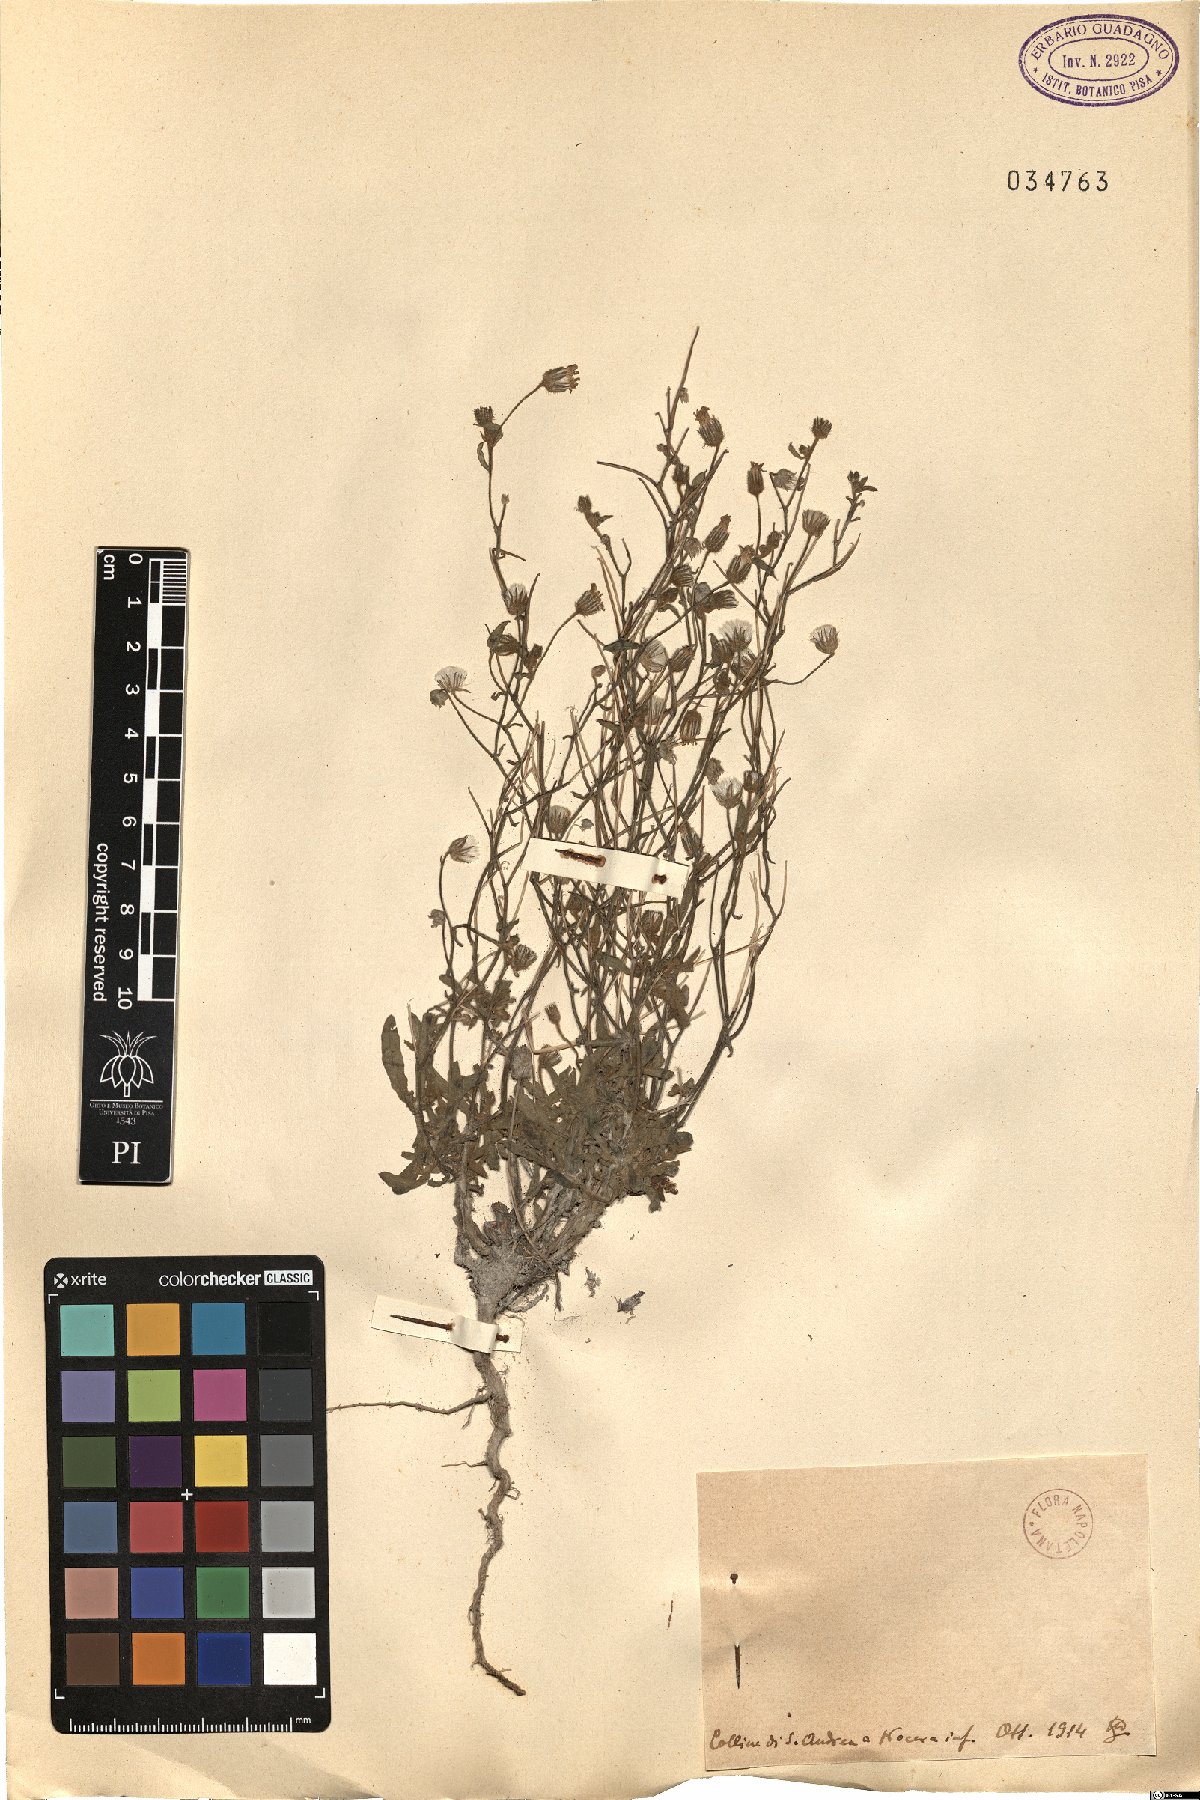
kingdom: Plantae
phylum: Tracheophyta
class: Magnoliopsida
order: Asterales
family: Asteraceae
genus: Andryala
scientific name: Andryala
